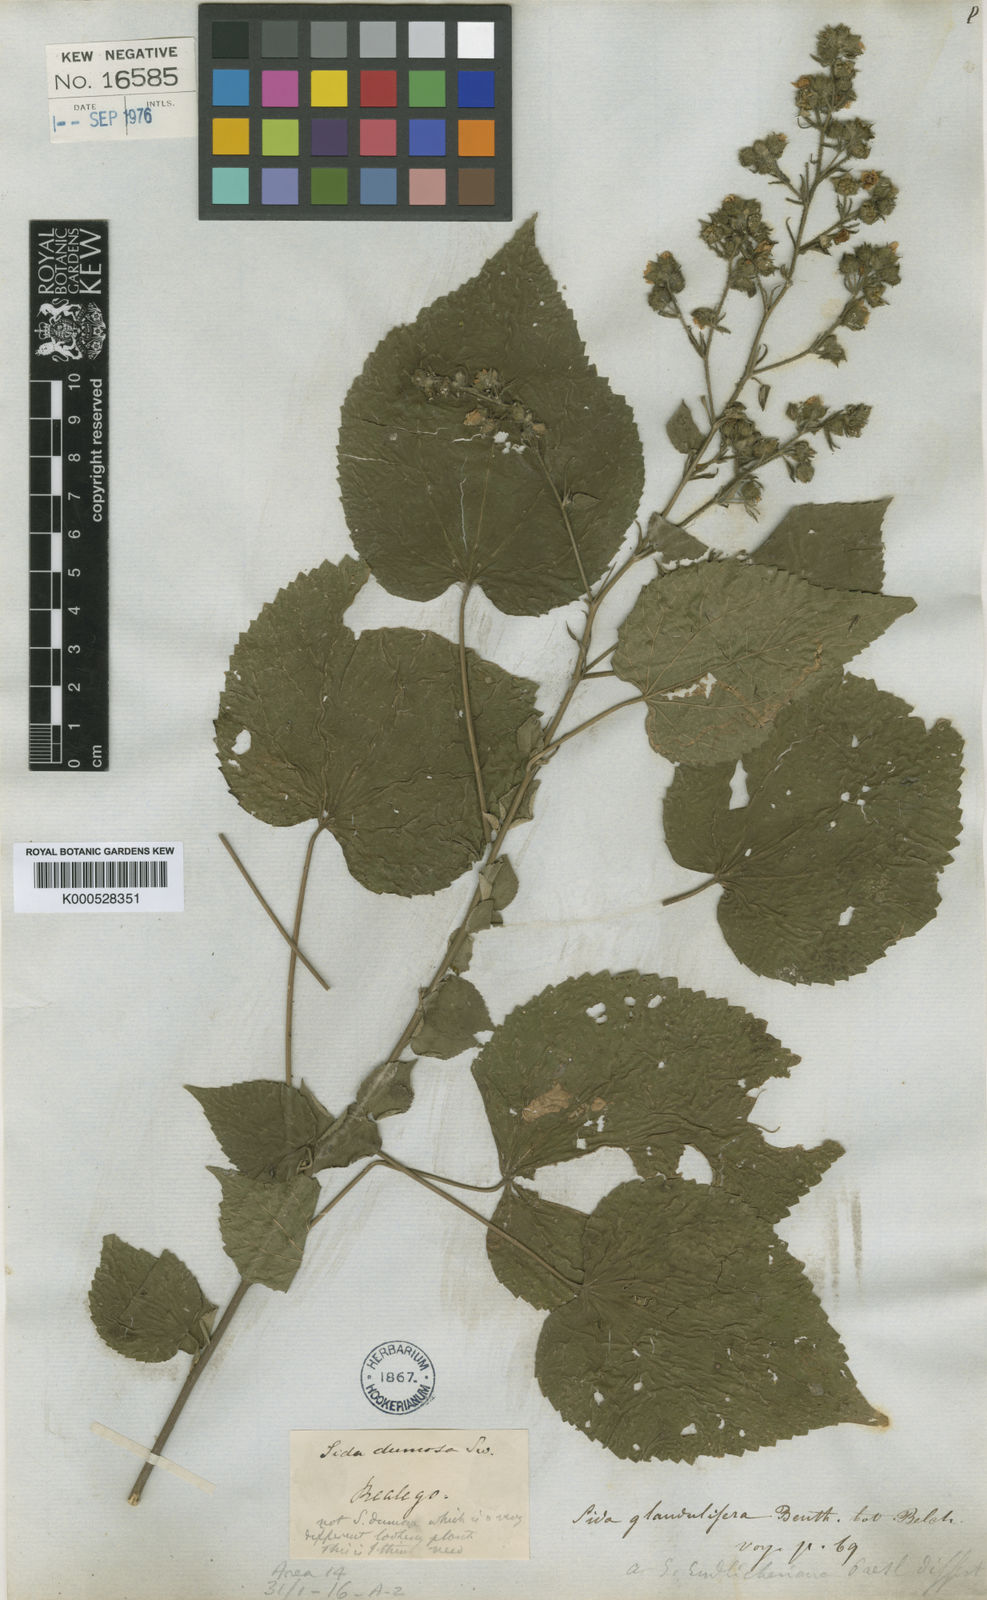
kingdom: Plantae
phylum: Tracheophyta
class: Magnoliopsida
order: Malvales
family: Malvaceae
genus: Sida
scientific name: Sida
